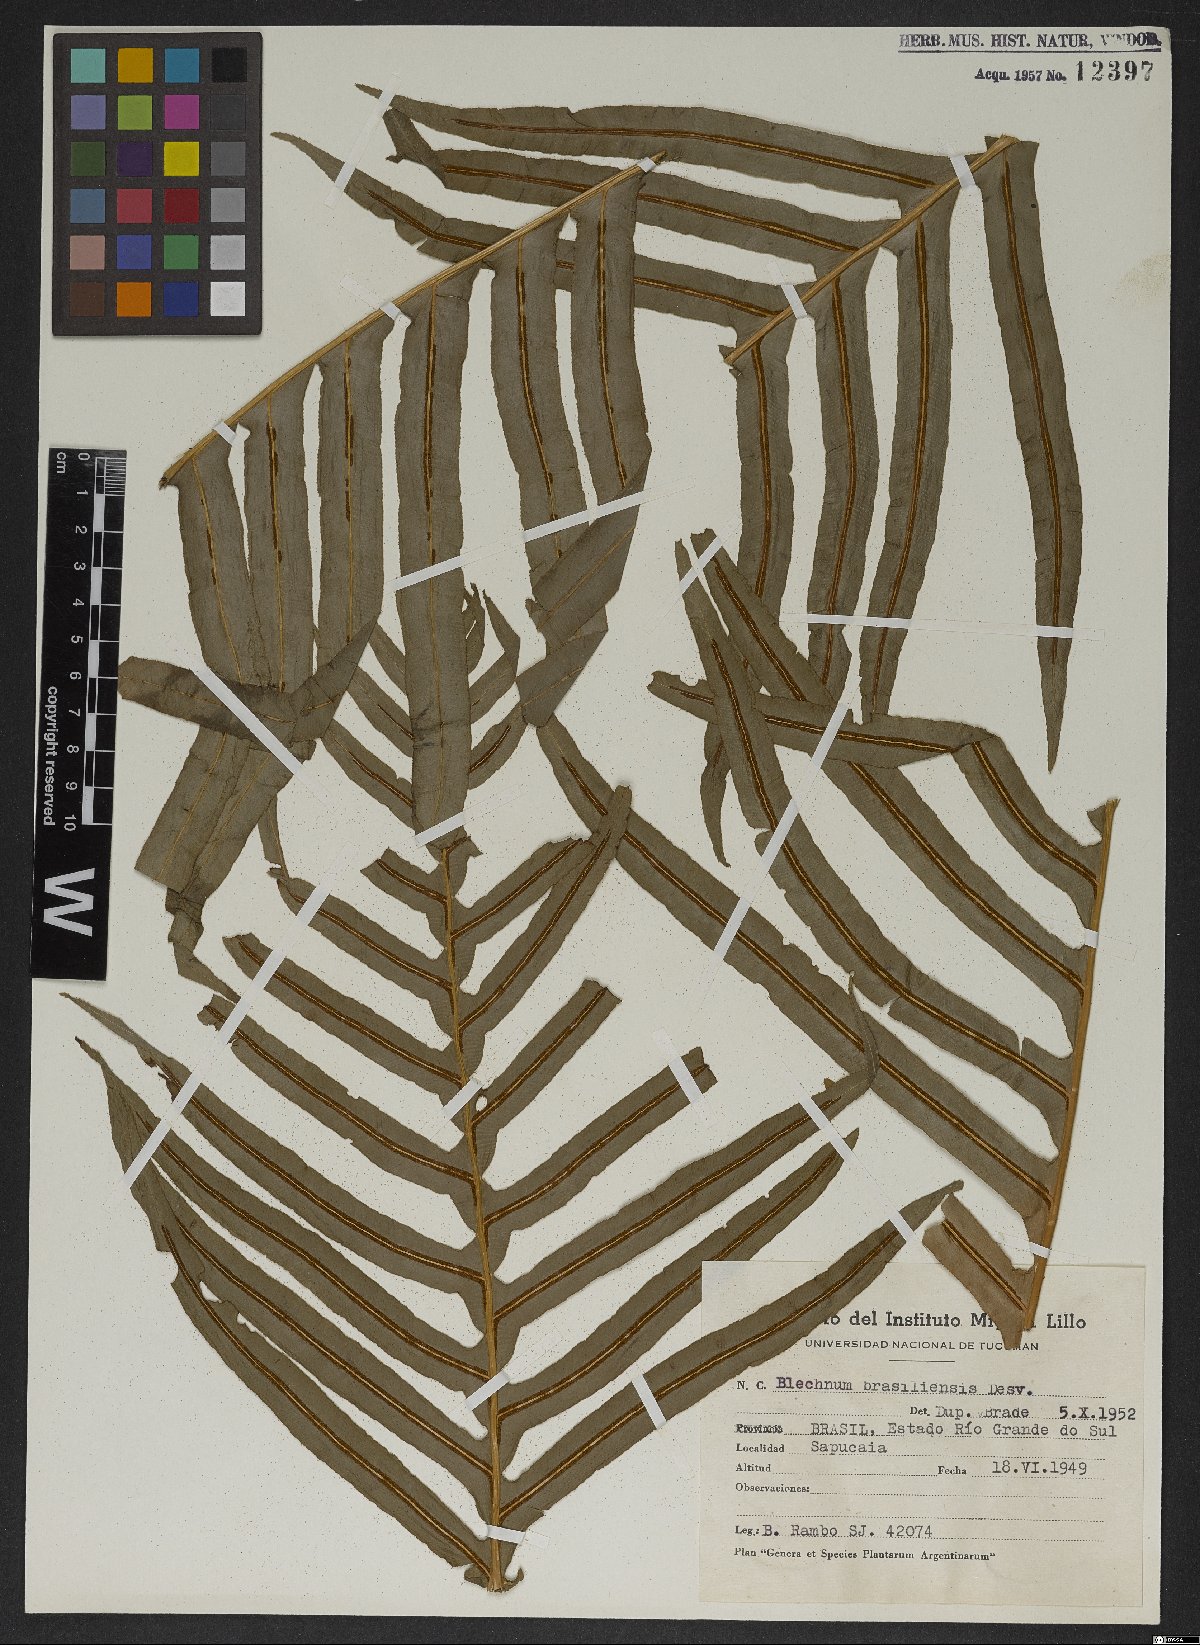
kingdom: Plantae
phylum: Tracheophyta
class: Polypodiopsida
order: Polypodiales
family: Blechnaceae
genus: Neoblechnum
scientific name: Neoblechnum brasiliense
